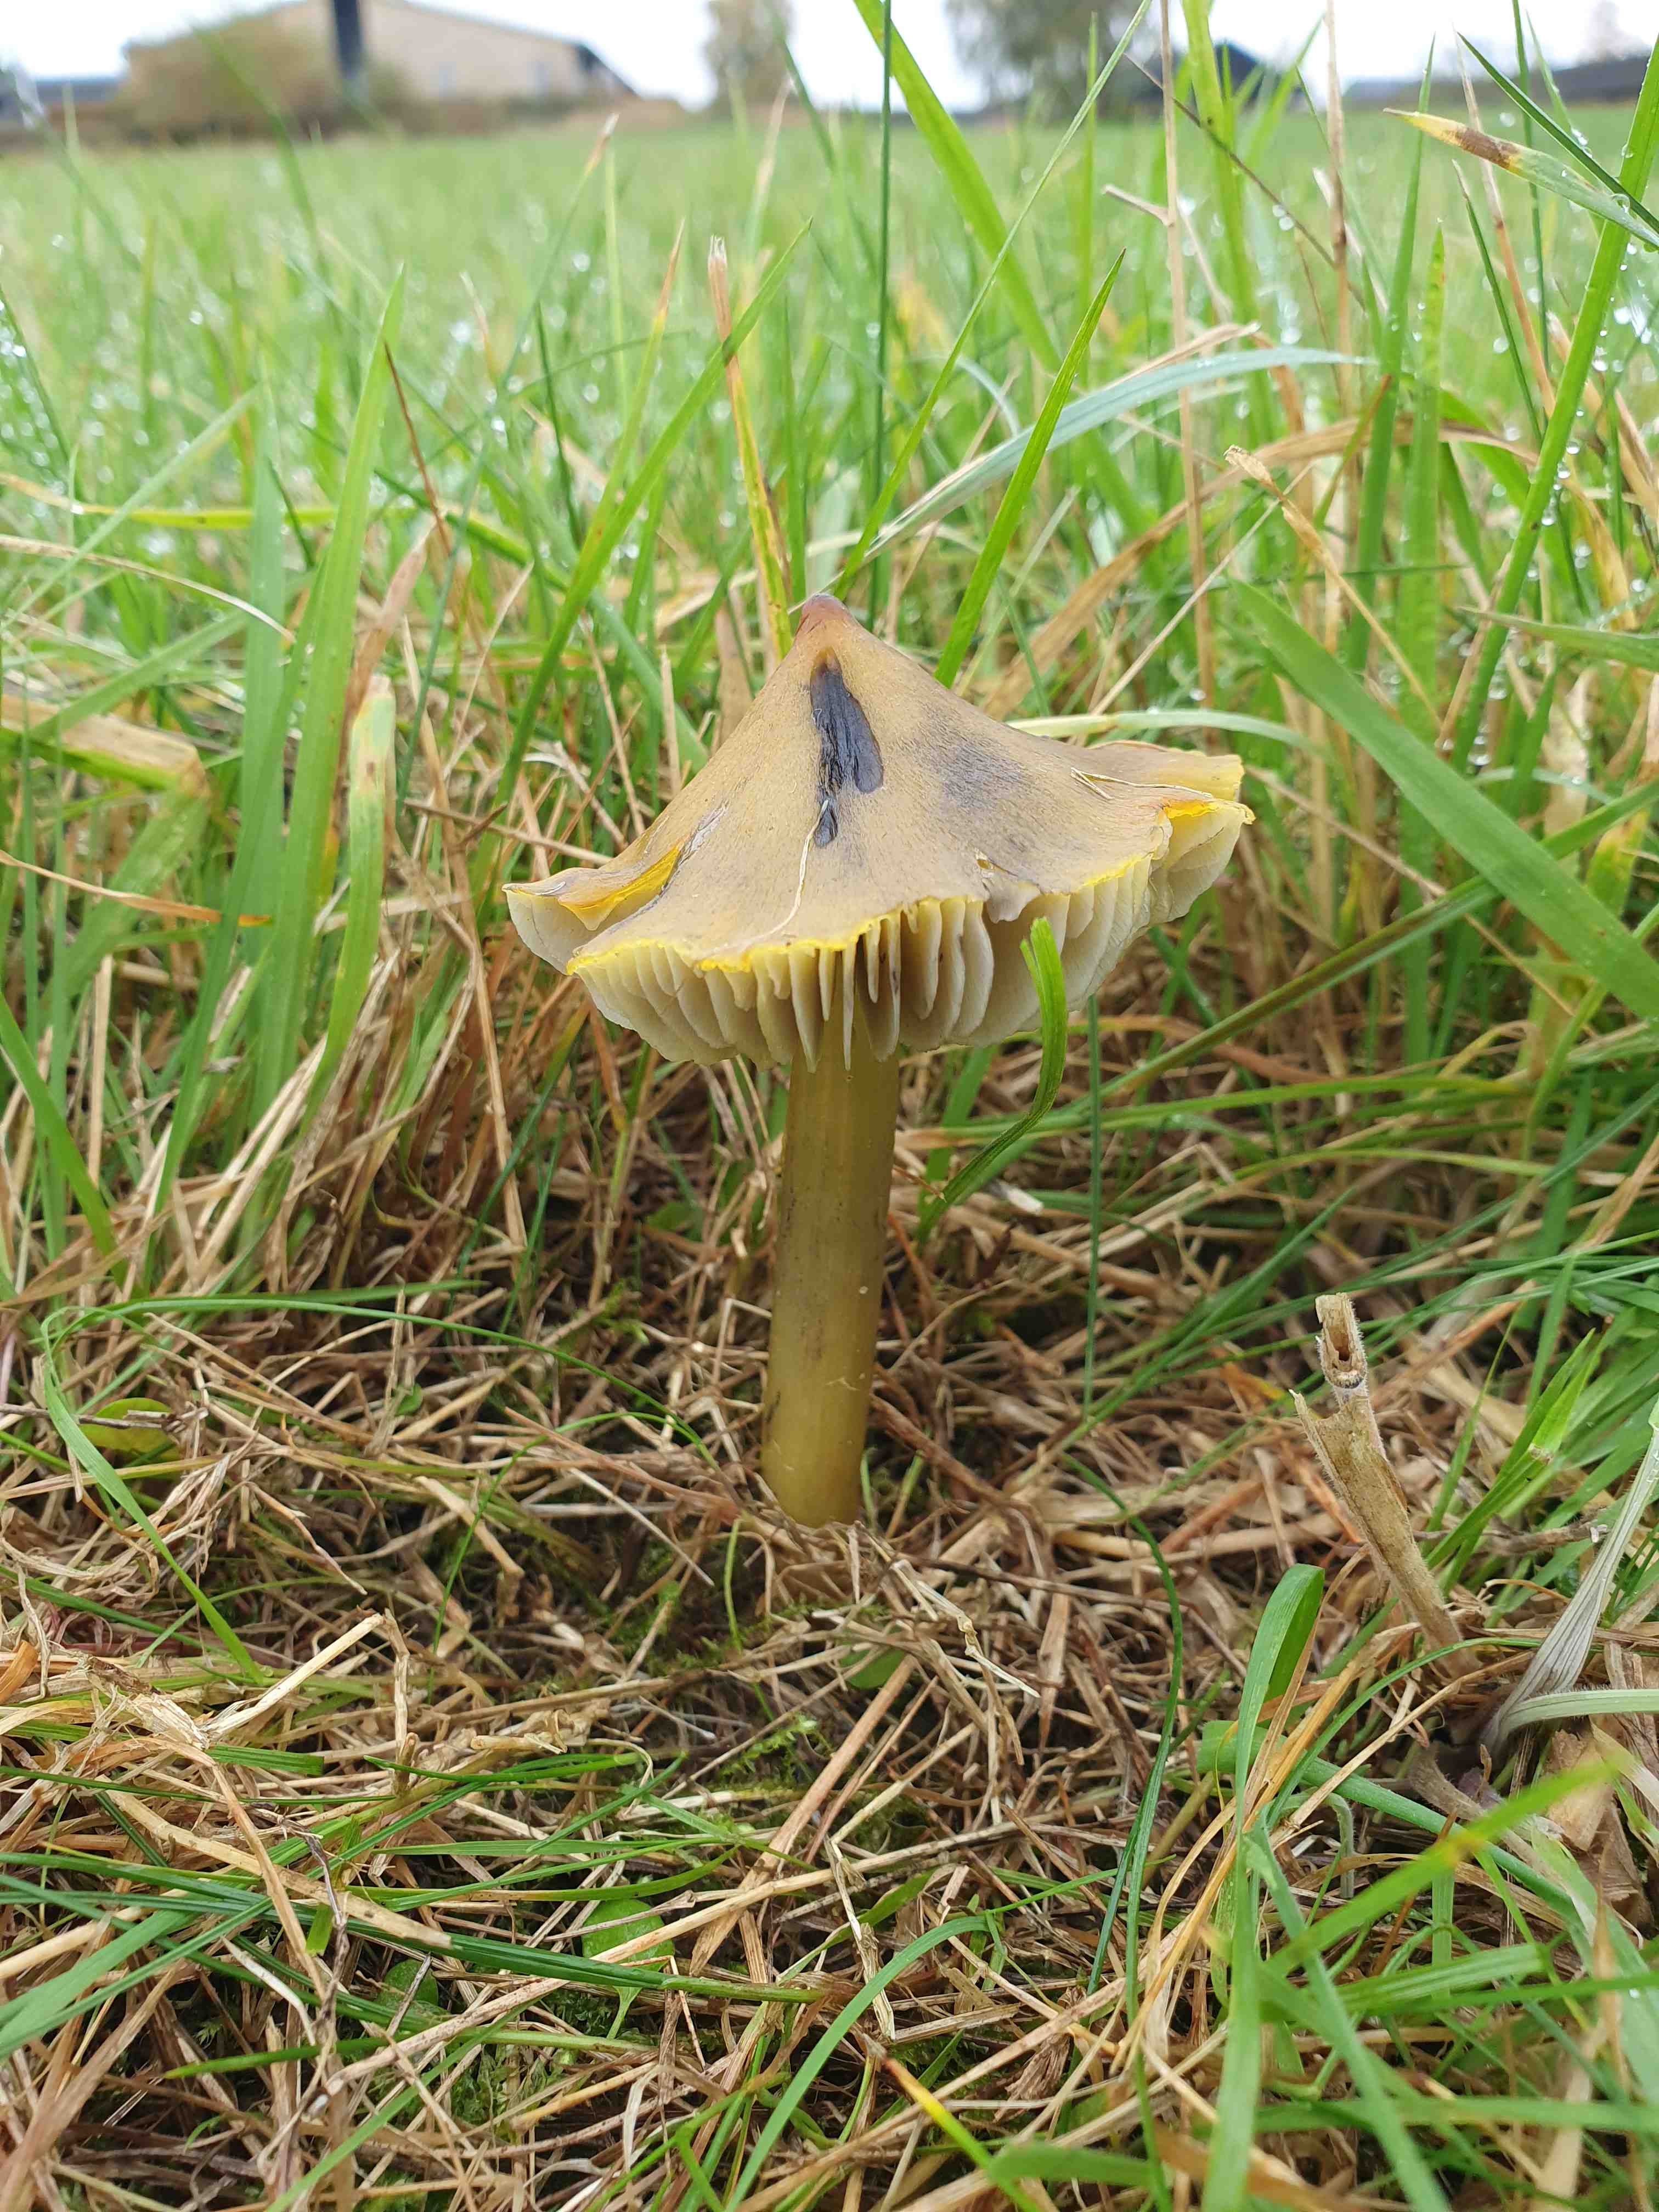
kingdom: Fungi
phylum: Basidiomycota
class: Agaricomycetes
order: Agaricales
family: Hygrophoraceae
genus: Hygrocybe
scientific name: Hygrocybe conica
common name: kegle-vokshat
